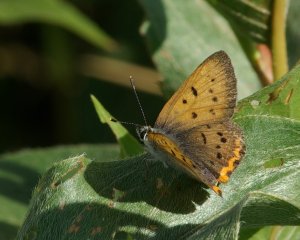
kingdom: Animalia
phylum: Arthropoda
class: Insecta
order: Lepidoptera
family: Sesiidae
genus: Sesia
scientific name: Sesia Lycaena helloides
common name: Purplish Copper
